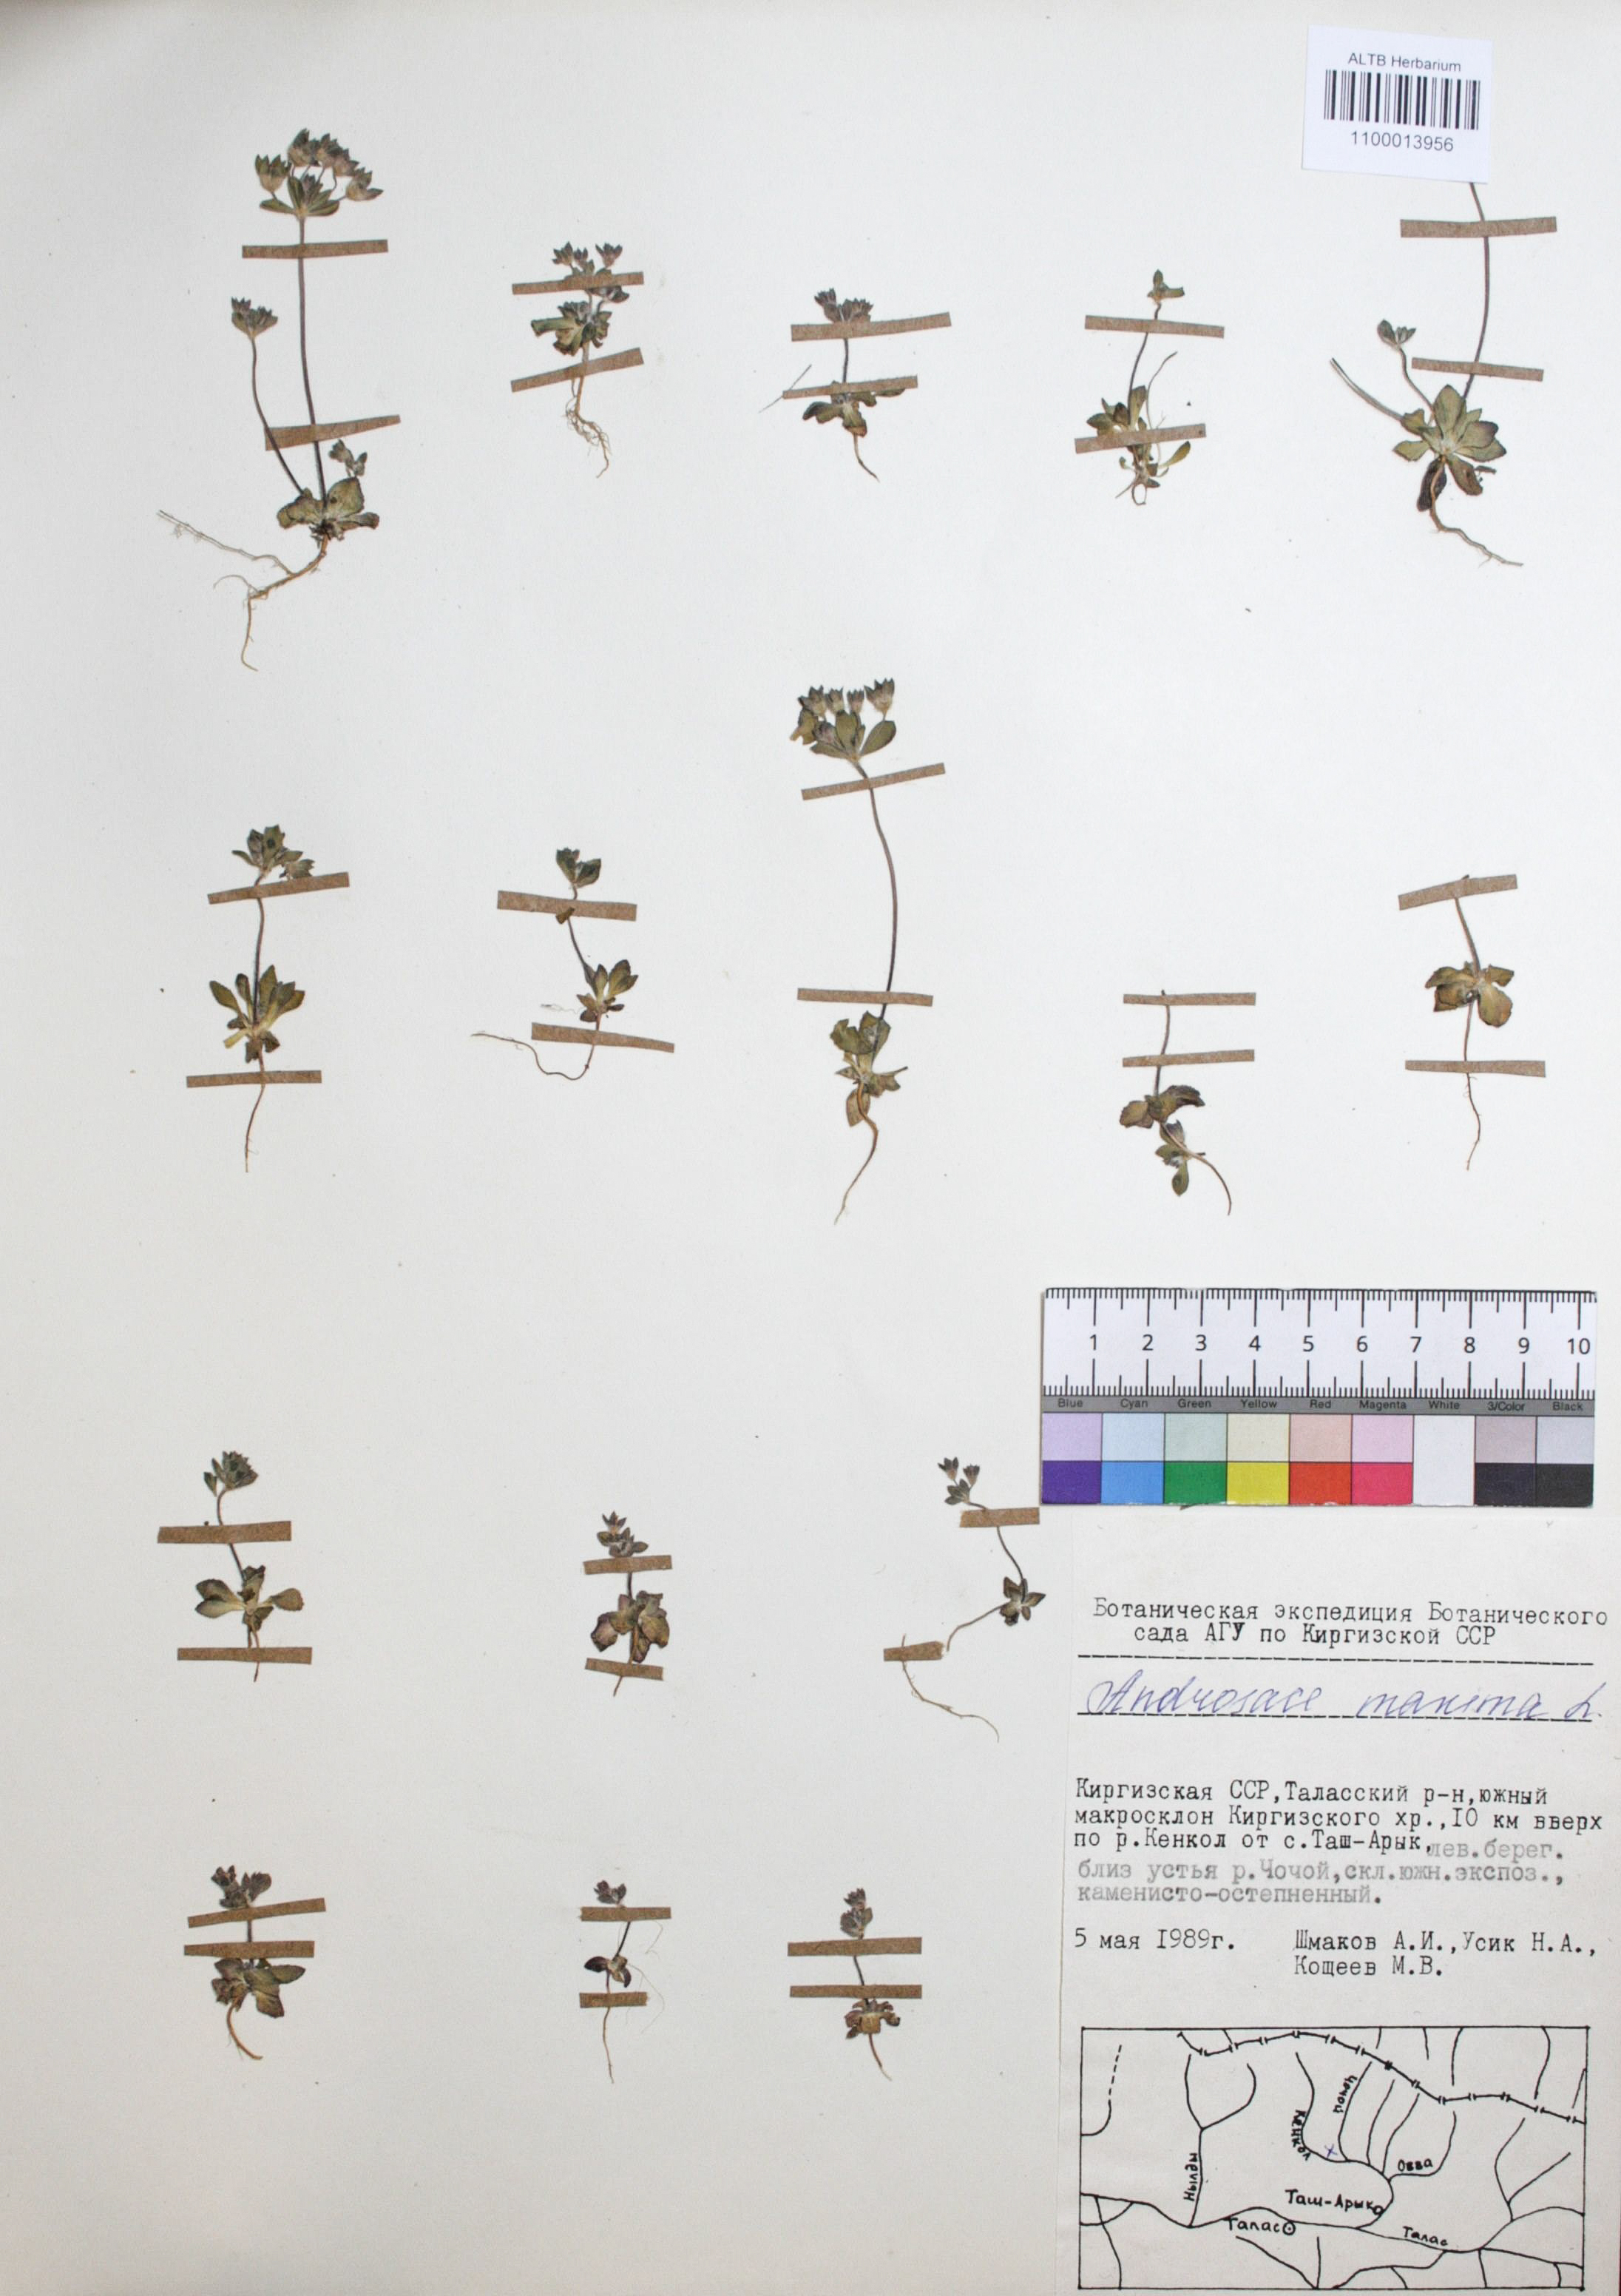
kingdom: Plantae
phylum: Tracheophyta
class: Magnoliopsida
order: Ericales
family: Primulaceae
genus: Androsace
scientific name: Androsace maxima
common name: Annual androsace
